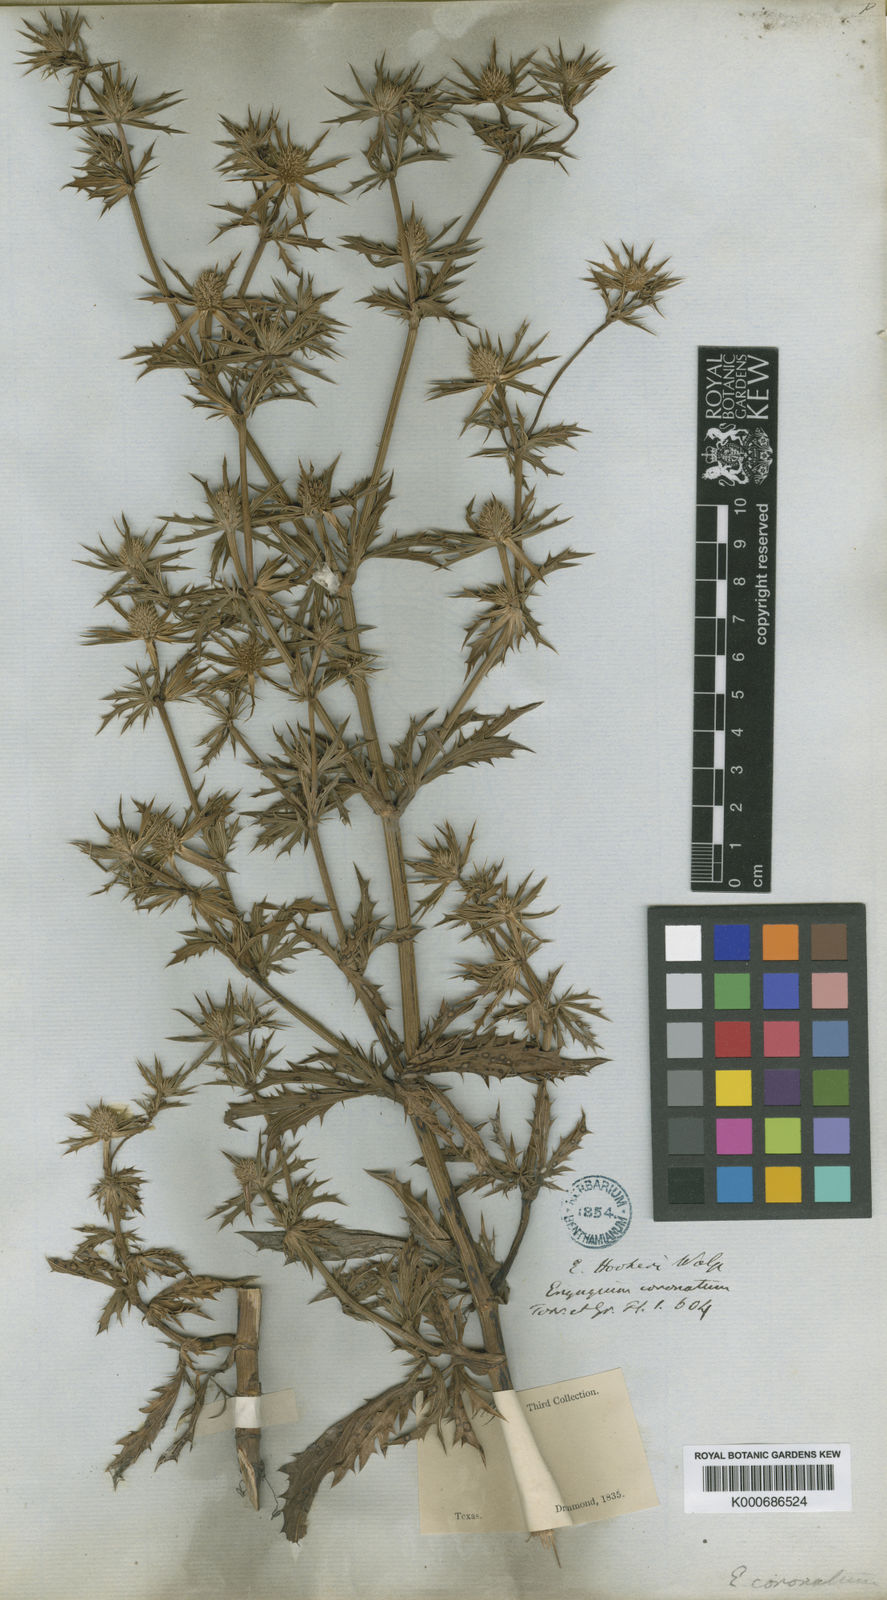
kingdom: Plantae
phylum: Tracheophyta
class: Magnoliopsida
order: Apiales
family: Apiaceae
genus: Eryngium
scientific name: Eryngium hookeri
